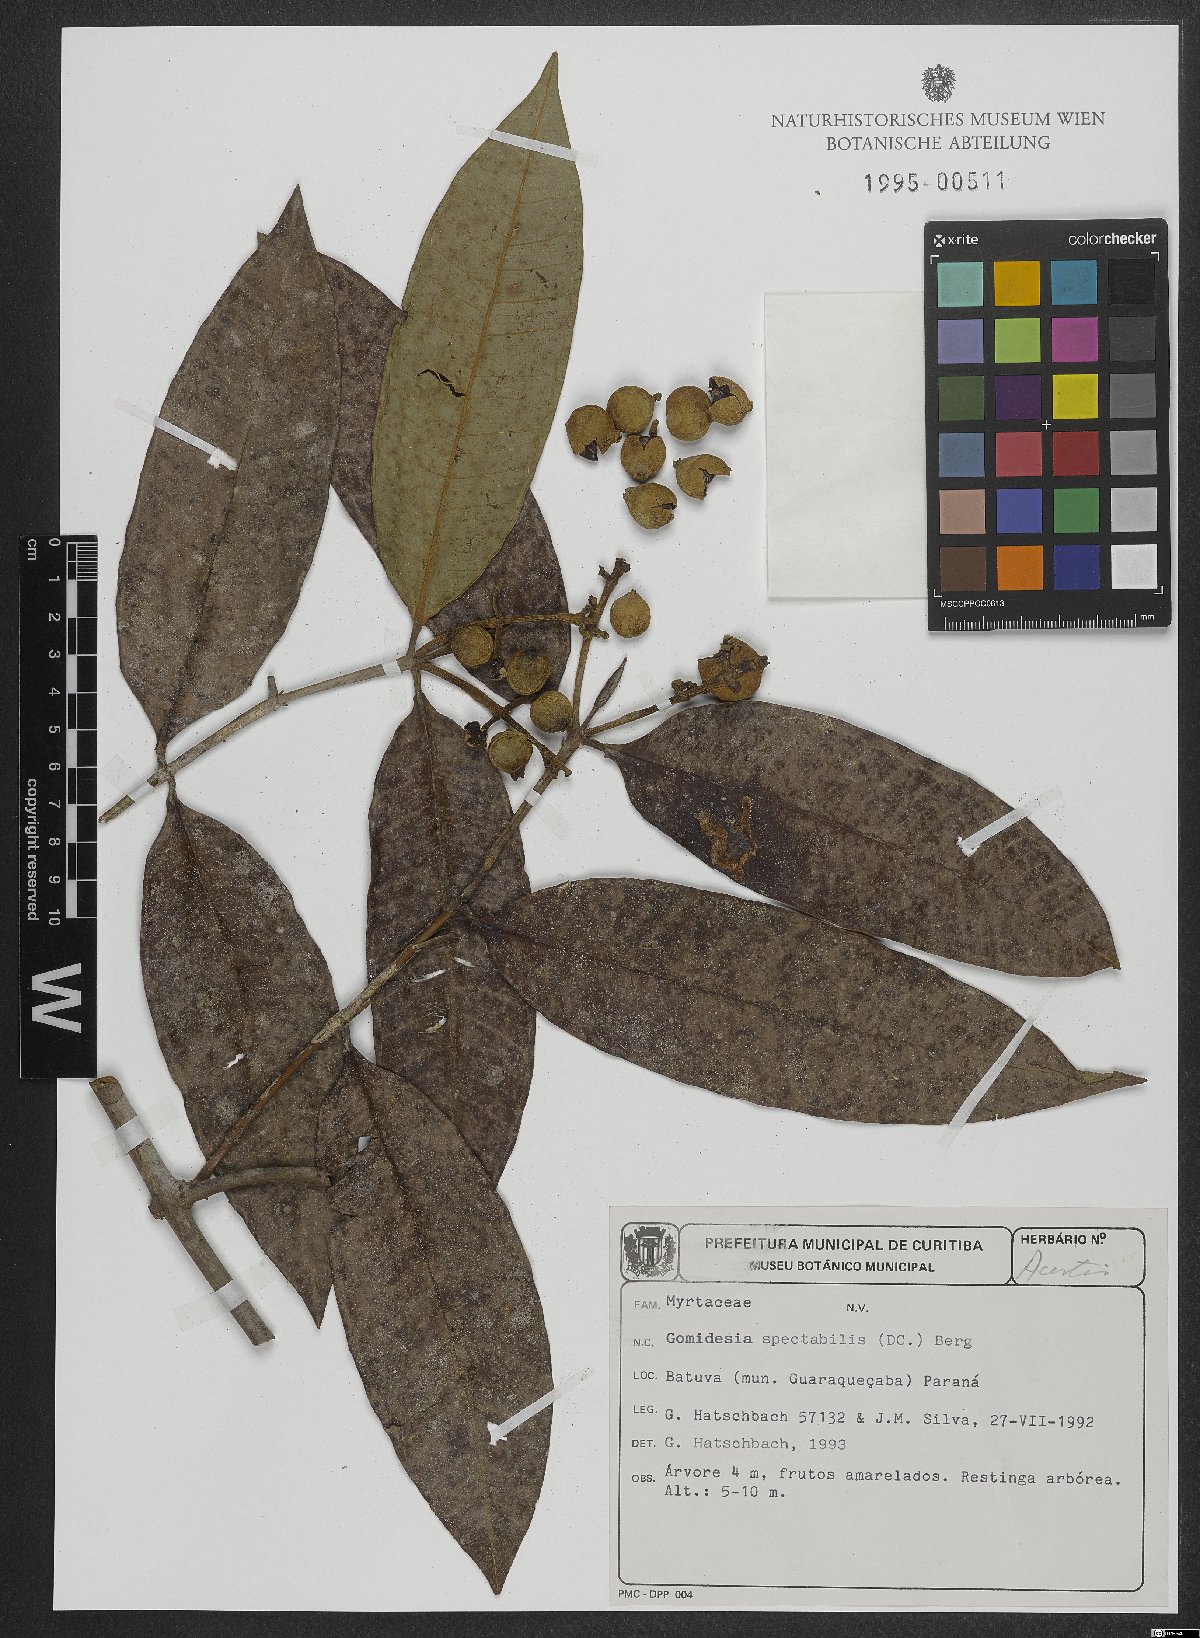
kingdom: Plantae
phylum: Tracheophyta
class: Magnoliopsida
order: Myrtales
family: Myrtaceae
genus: Myrcia
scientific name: Myrcia spectabilis
